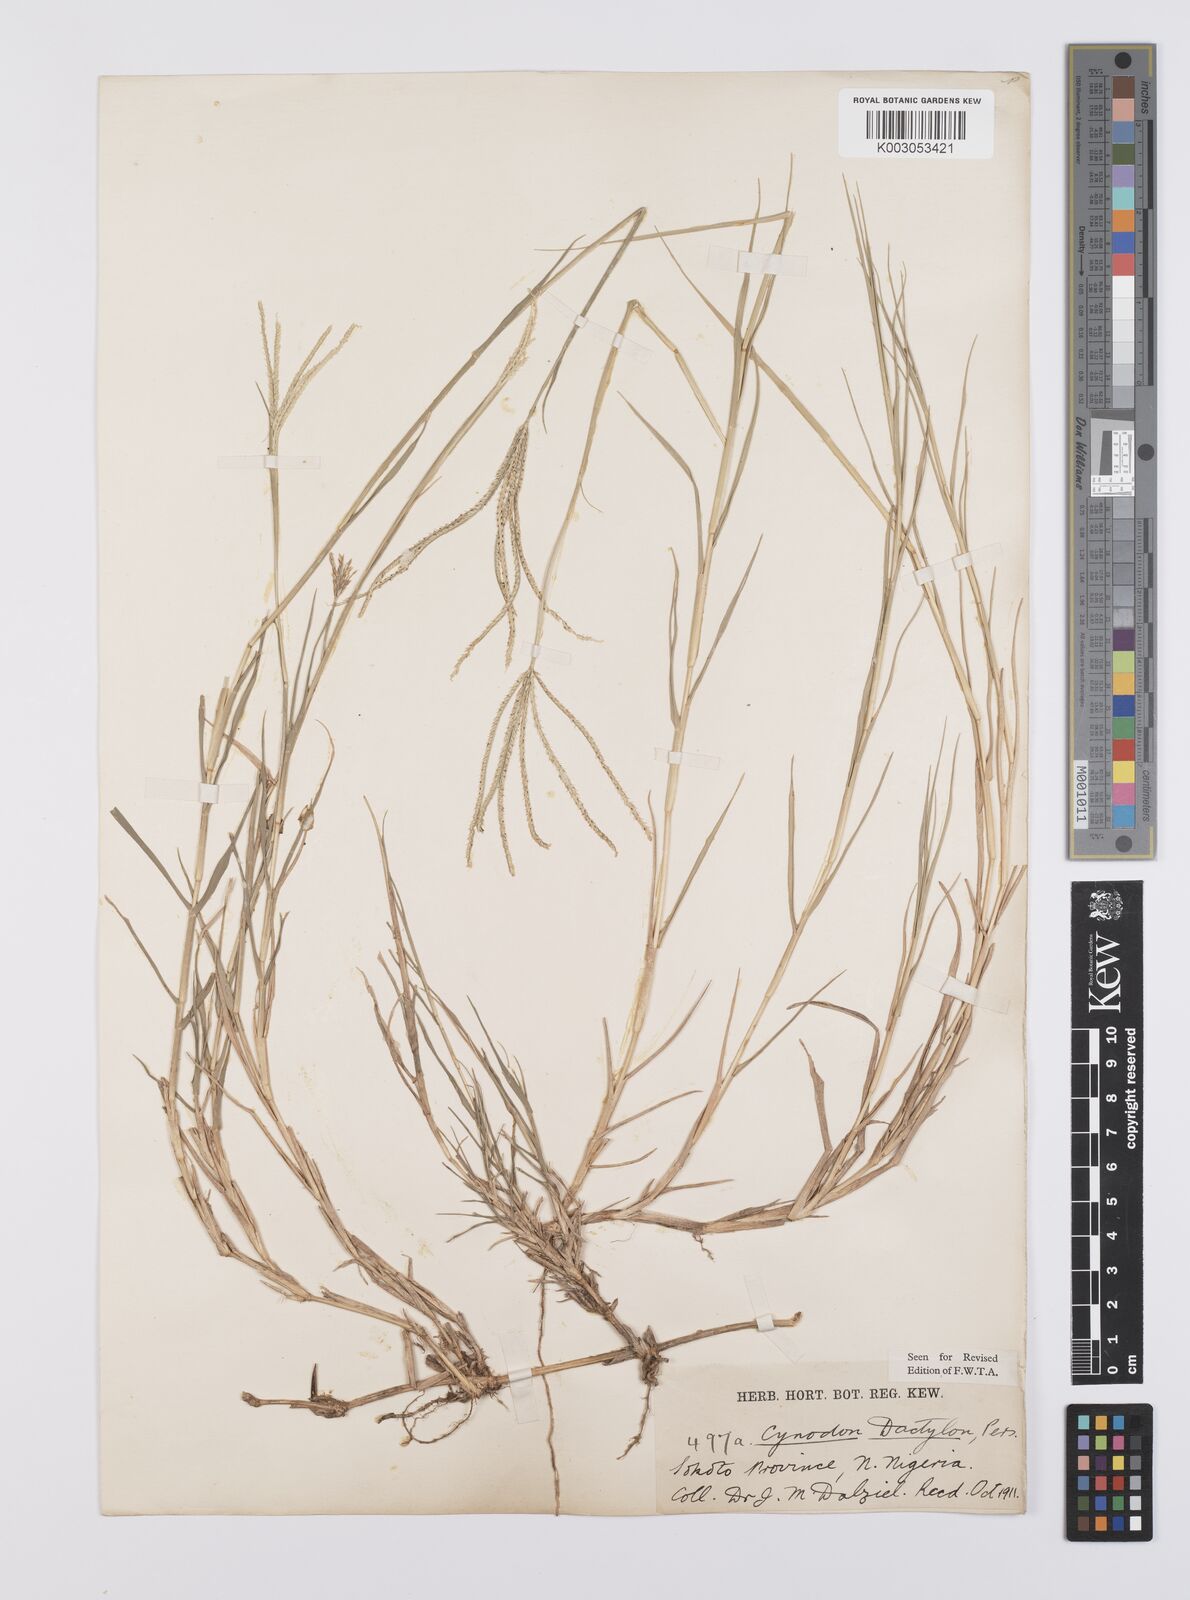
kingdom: Plantae
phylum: Tracheophyta
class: Liliopsida
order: Poales
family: Poaceae
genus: Cynodon
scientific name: Cynodon dactylon
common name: Bermuda grass
